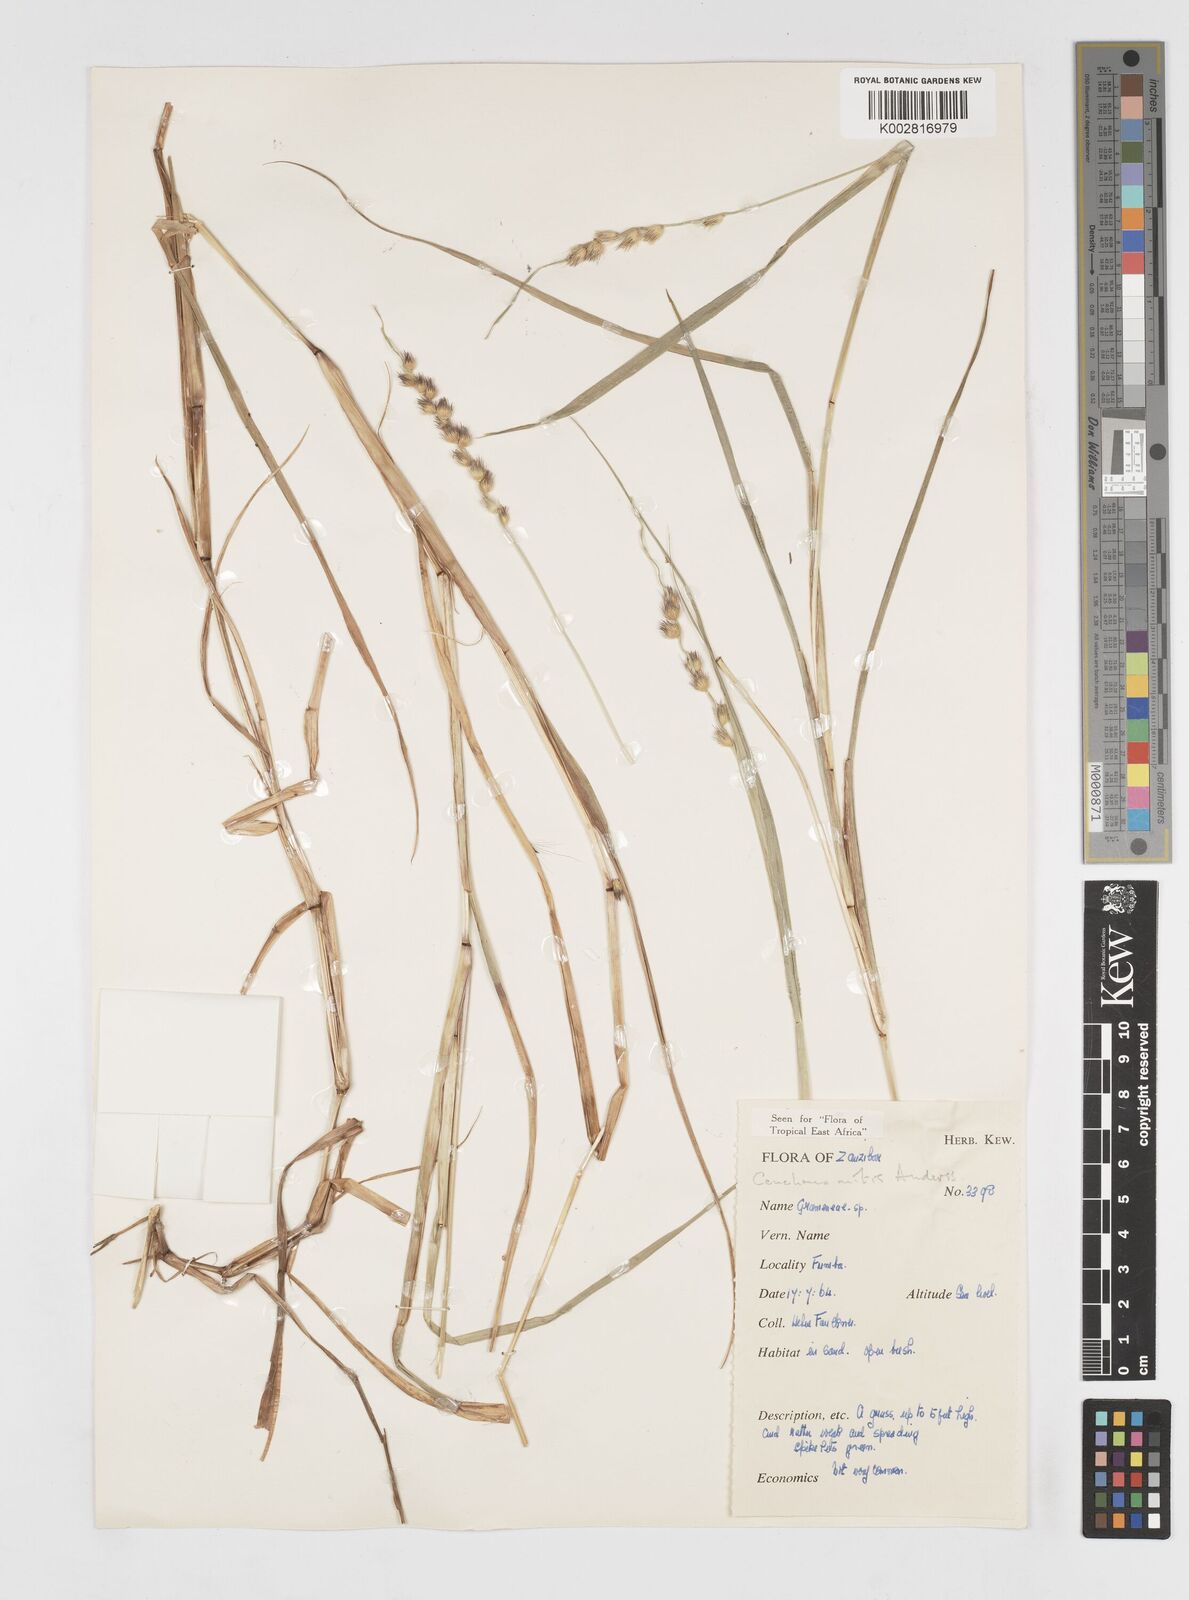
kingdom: Plantae
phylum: Tracheophyta
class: Liliopsida
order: Poales
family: Poaceae
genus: Cenchrus
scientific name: Cenchrus mitis
